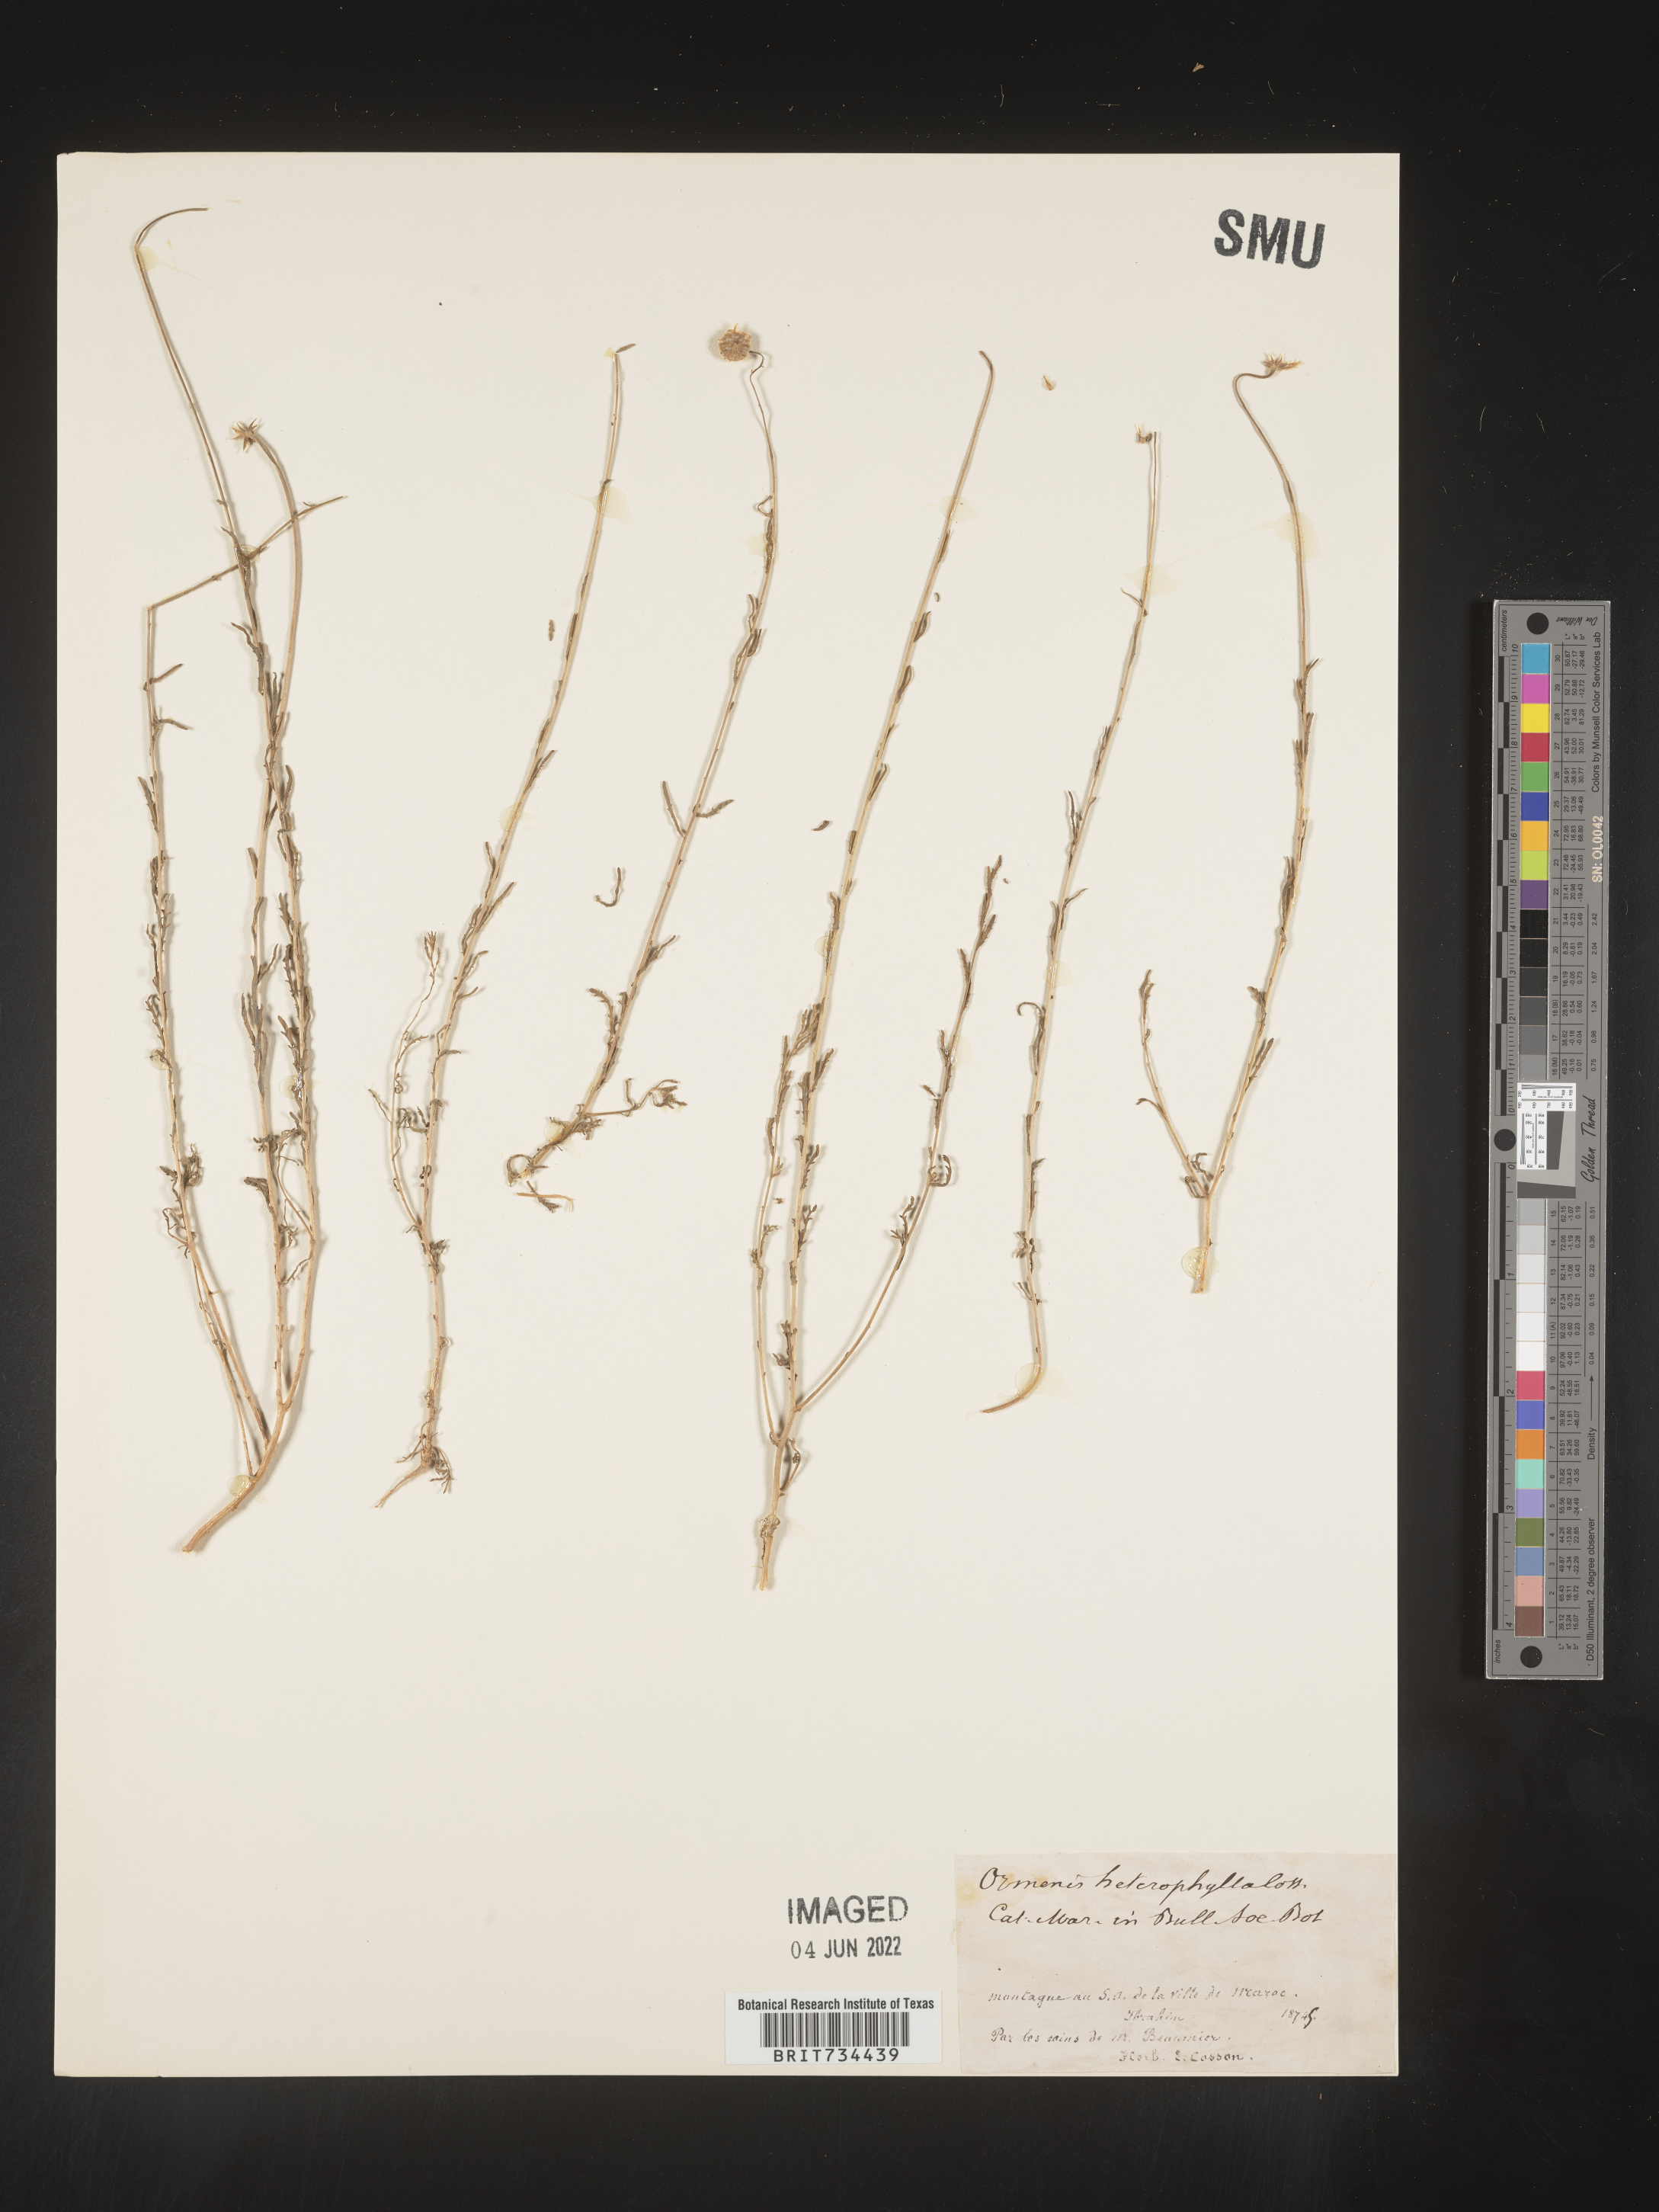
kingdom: Plantae
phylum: Tracheophyta
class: Magnoliopsida
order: Asterales
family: Asteraceae
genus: Cladanthus
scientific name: Cladanthus Ormenis heterophylla
